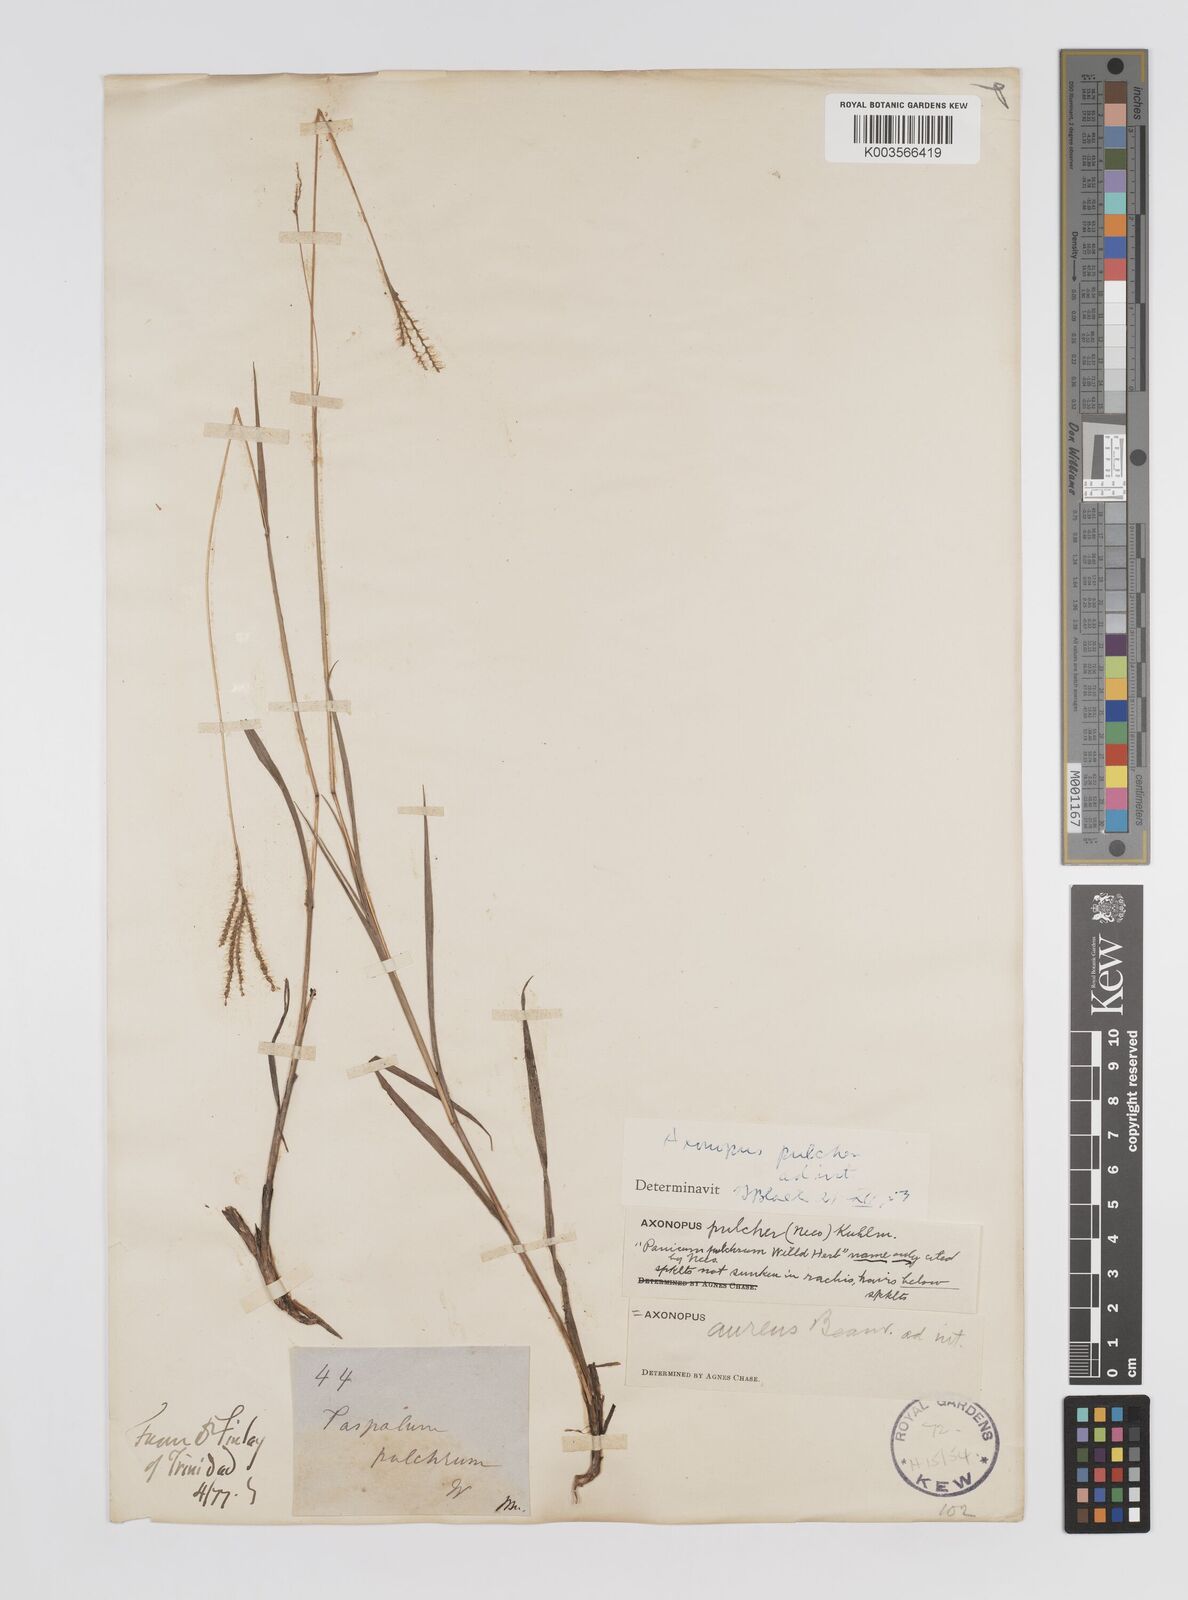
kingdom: Plantae
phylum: Tracheophyta
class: Liliopsida
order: Poales
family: Poaceae
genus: Axonopus
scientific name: Axonopus
